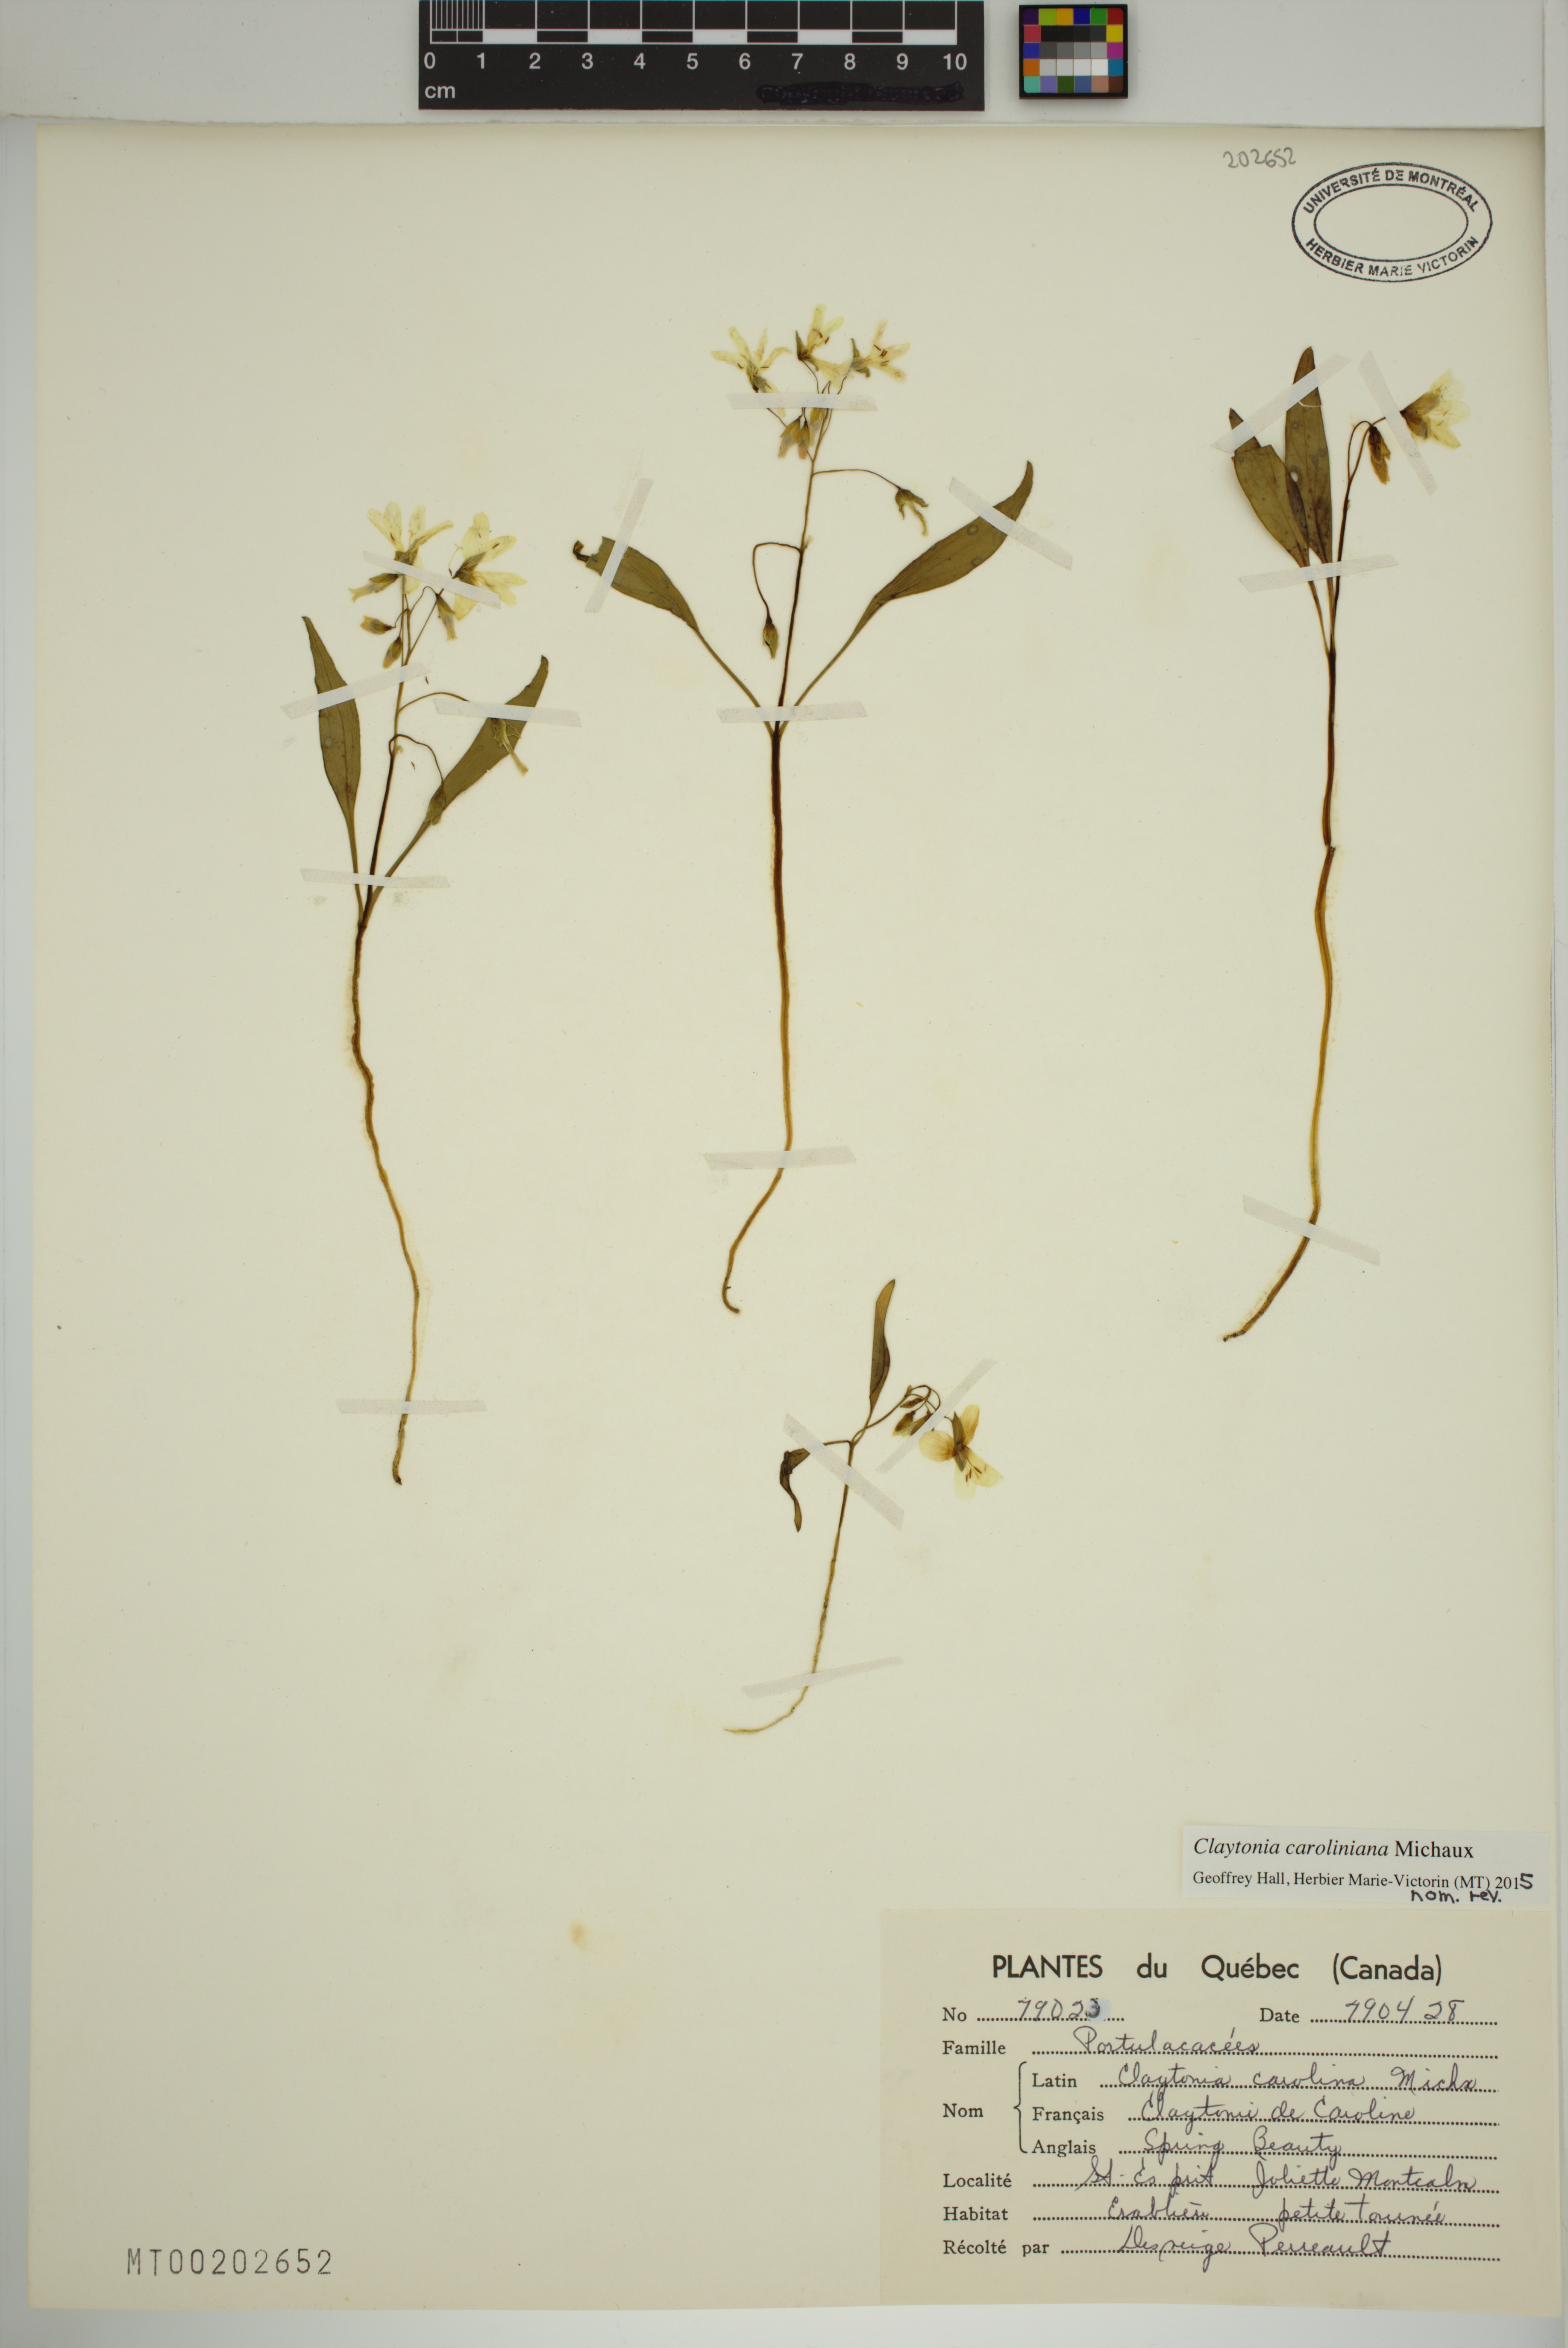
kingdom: Plantae
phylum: Tracheophyta
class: Magnoliopsida
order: Caryophyllales
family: Montiaceae
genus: Claytonia
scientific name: Claytonia caroliniana
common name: Carolina spring beauty
